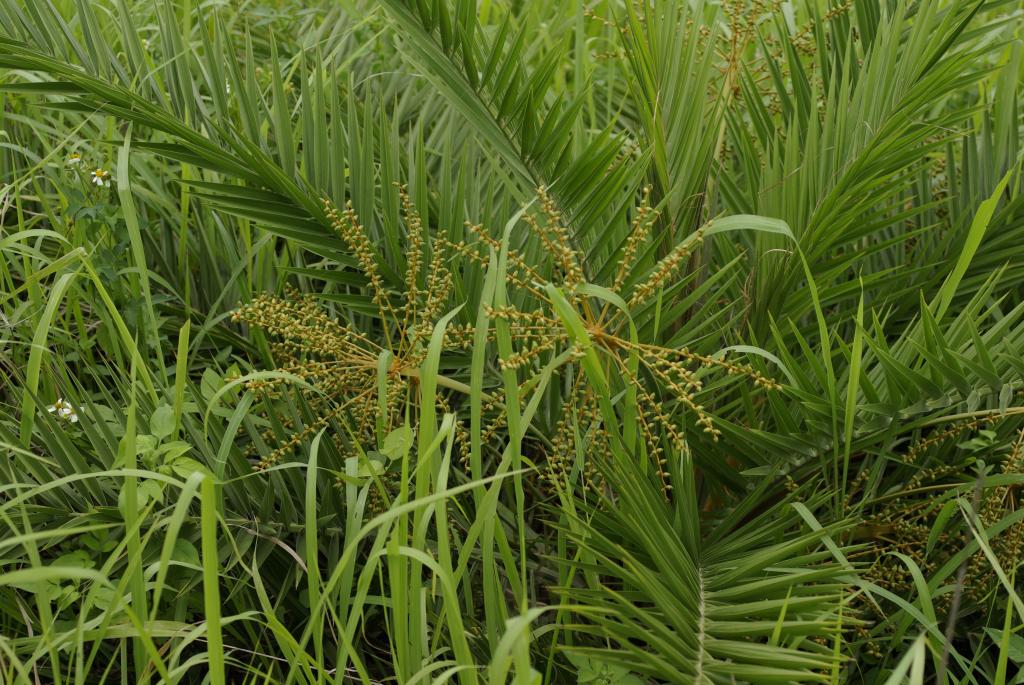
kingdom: Plantae
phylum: Tracheophyta
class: Liliopsida
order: Arecales
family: Arecaceae
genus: Phoenix
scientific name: Phoenix loureiroi
